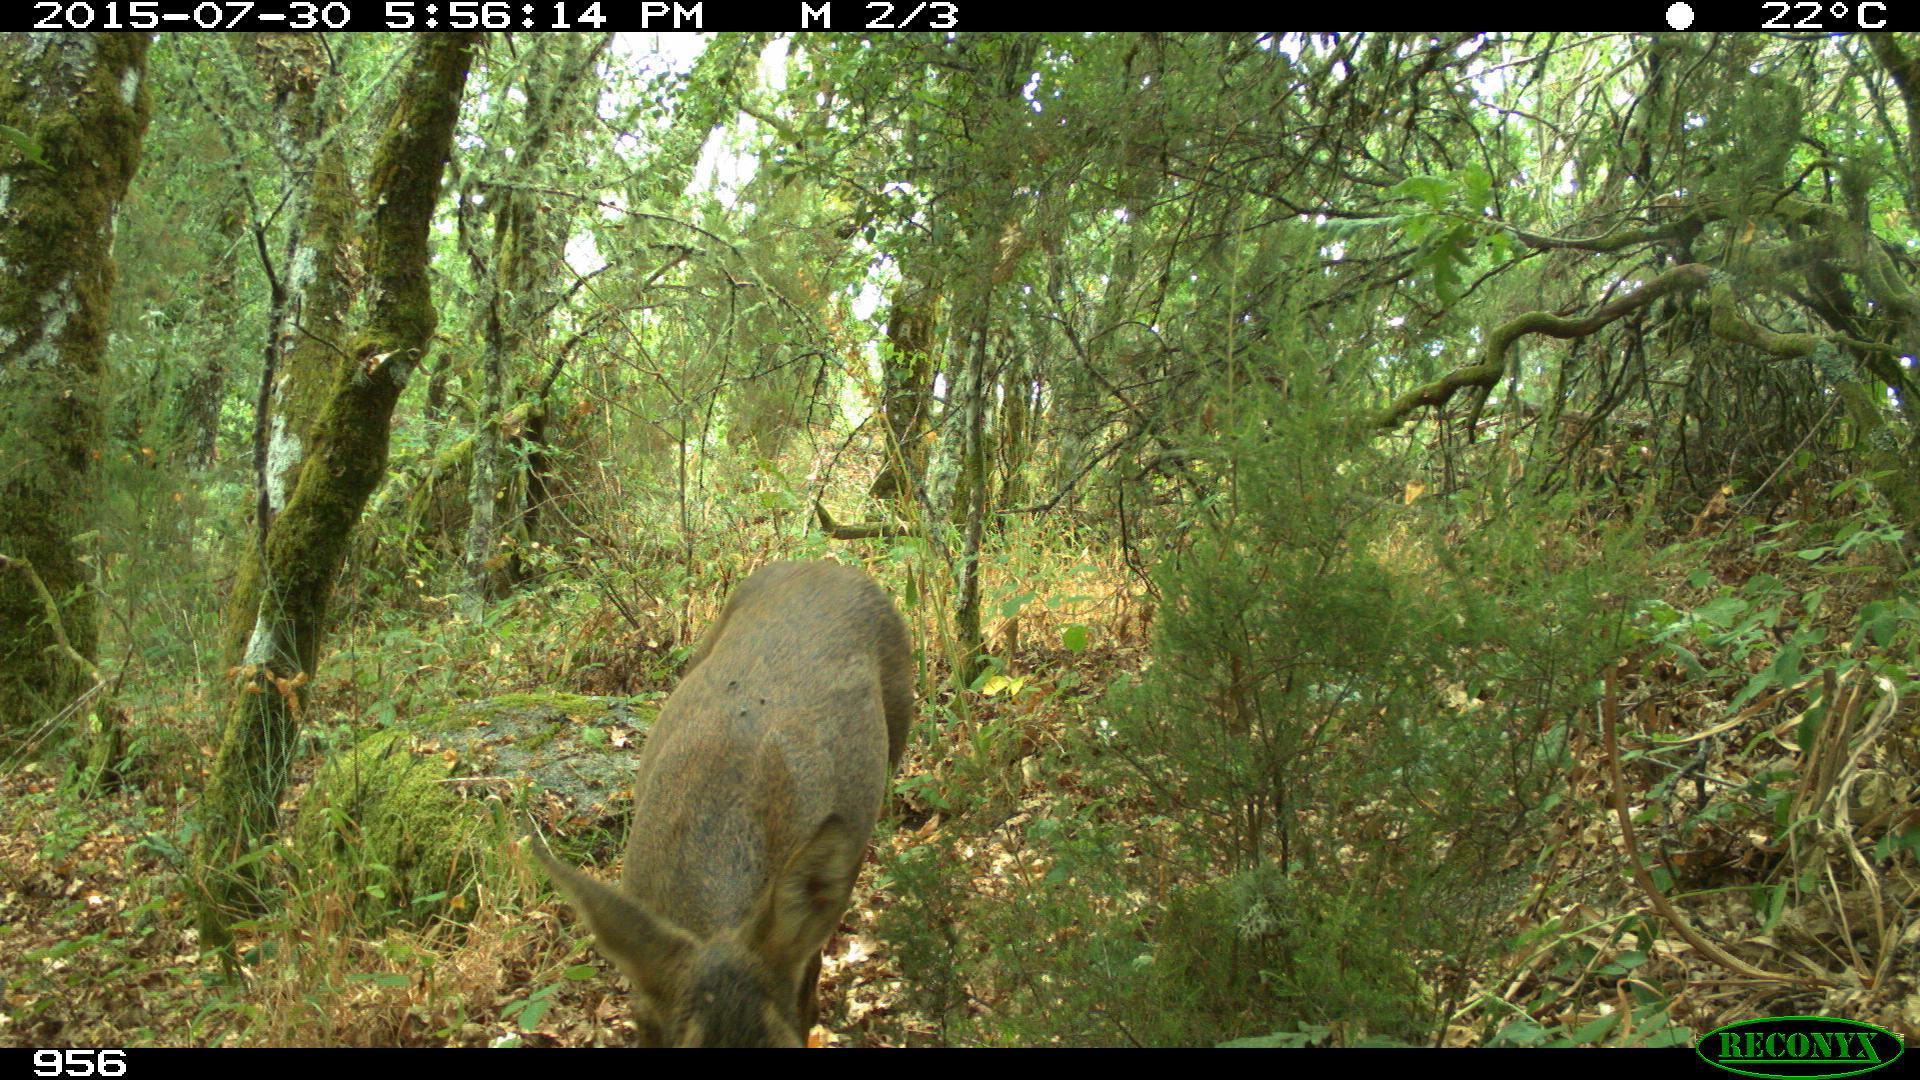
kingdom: Animalia
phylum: Chordata
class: Mammalia
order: Artiodactyla
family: Cervidae
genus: Capreolus
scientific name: Capreolus capreolus
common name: Western roe deer
